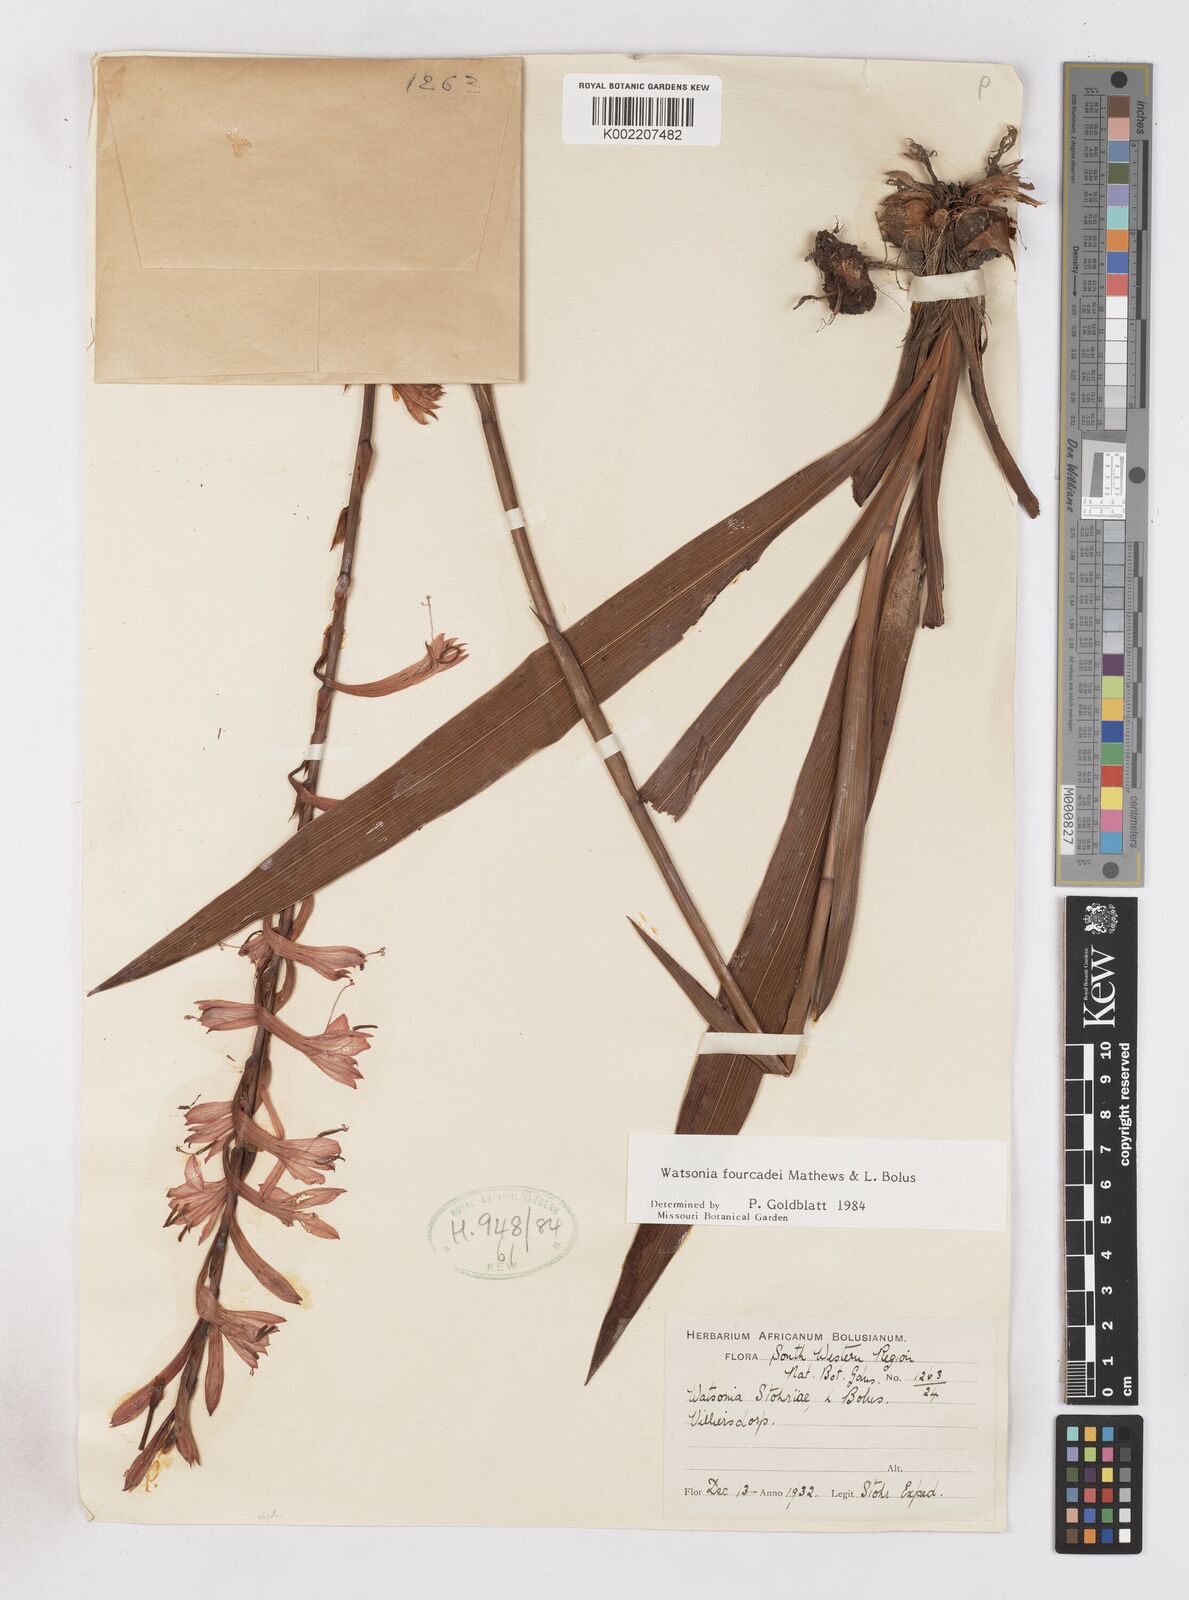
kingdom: Plantae
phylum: Tracheophyta
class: Liliopsida
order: Asparagales
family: Iridaceae
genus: Watsonia
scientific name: Watsonia fourcadei
